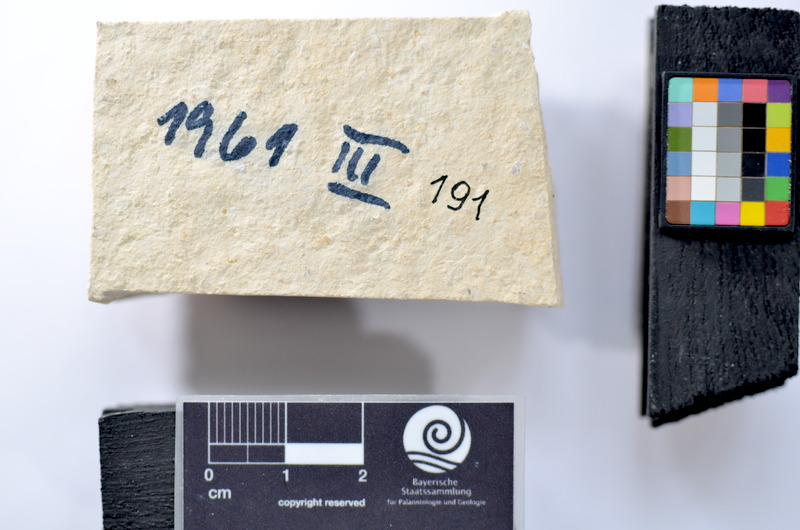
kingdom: Animalia
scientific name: Animalia
